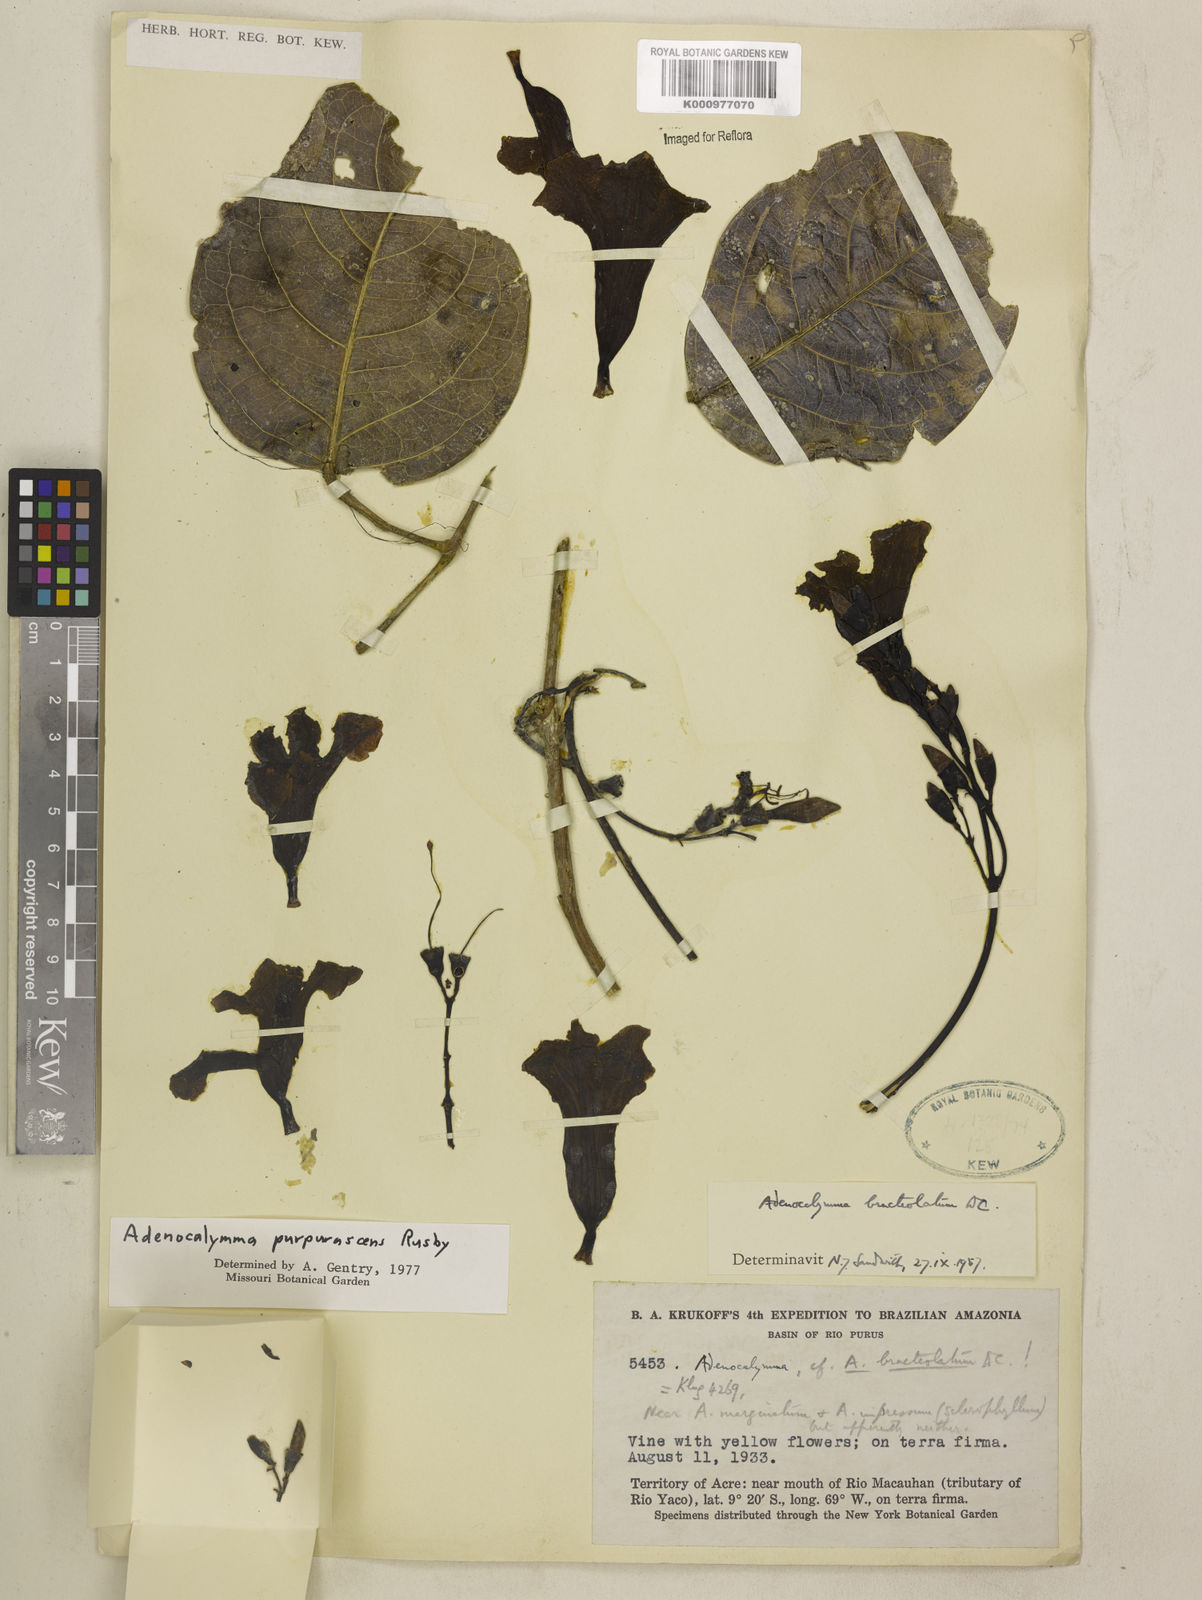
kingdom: Plantae
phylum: Tracheophyta
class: Magnoliopsida
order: Lamiales
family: Bignoniaceae
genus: Adenocalymma
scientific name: Adenocalymma purpurascens
